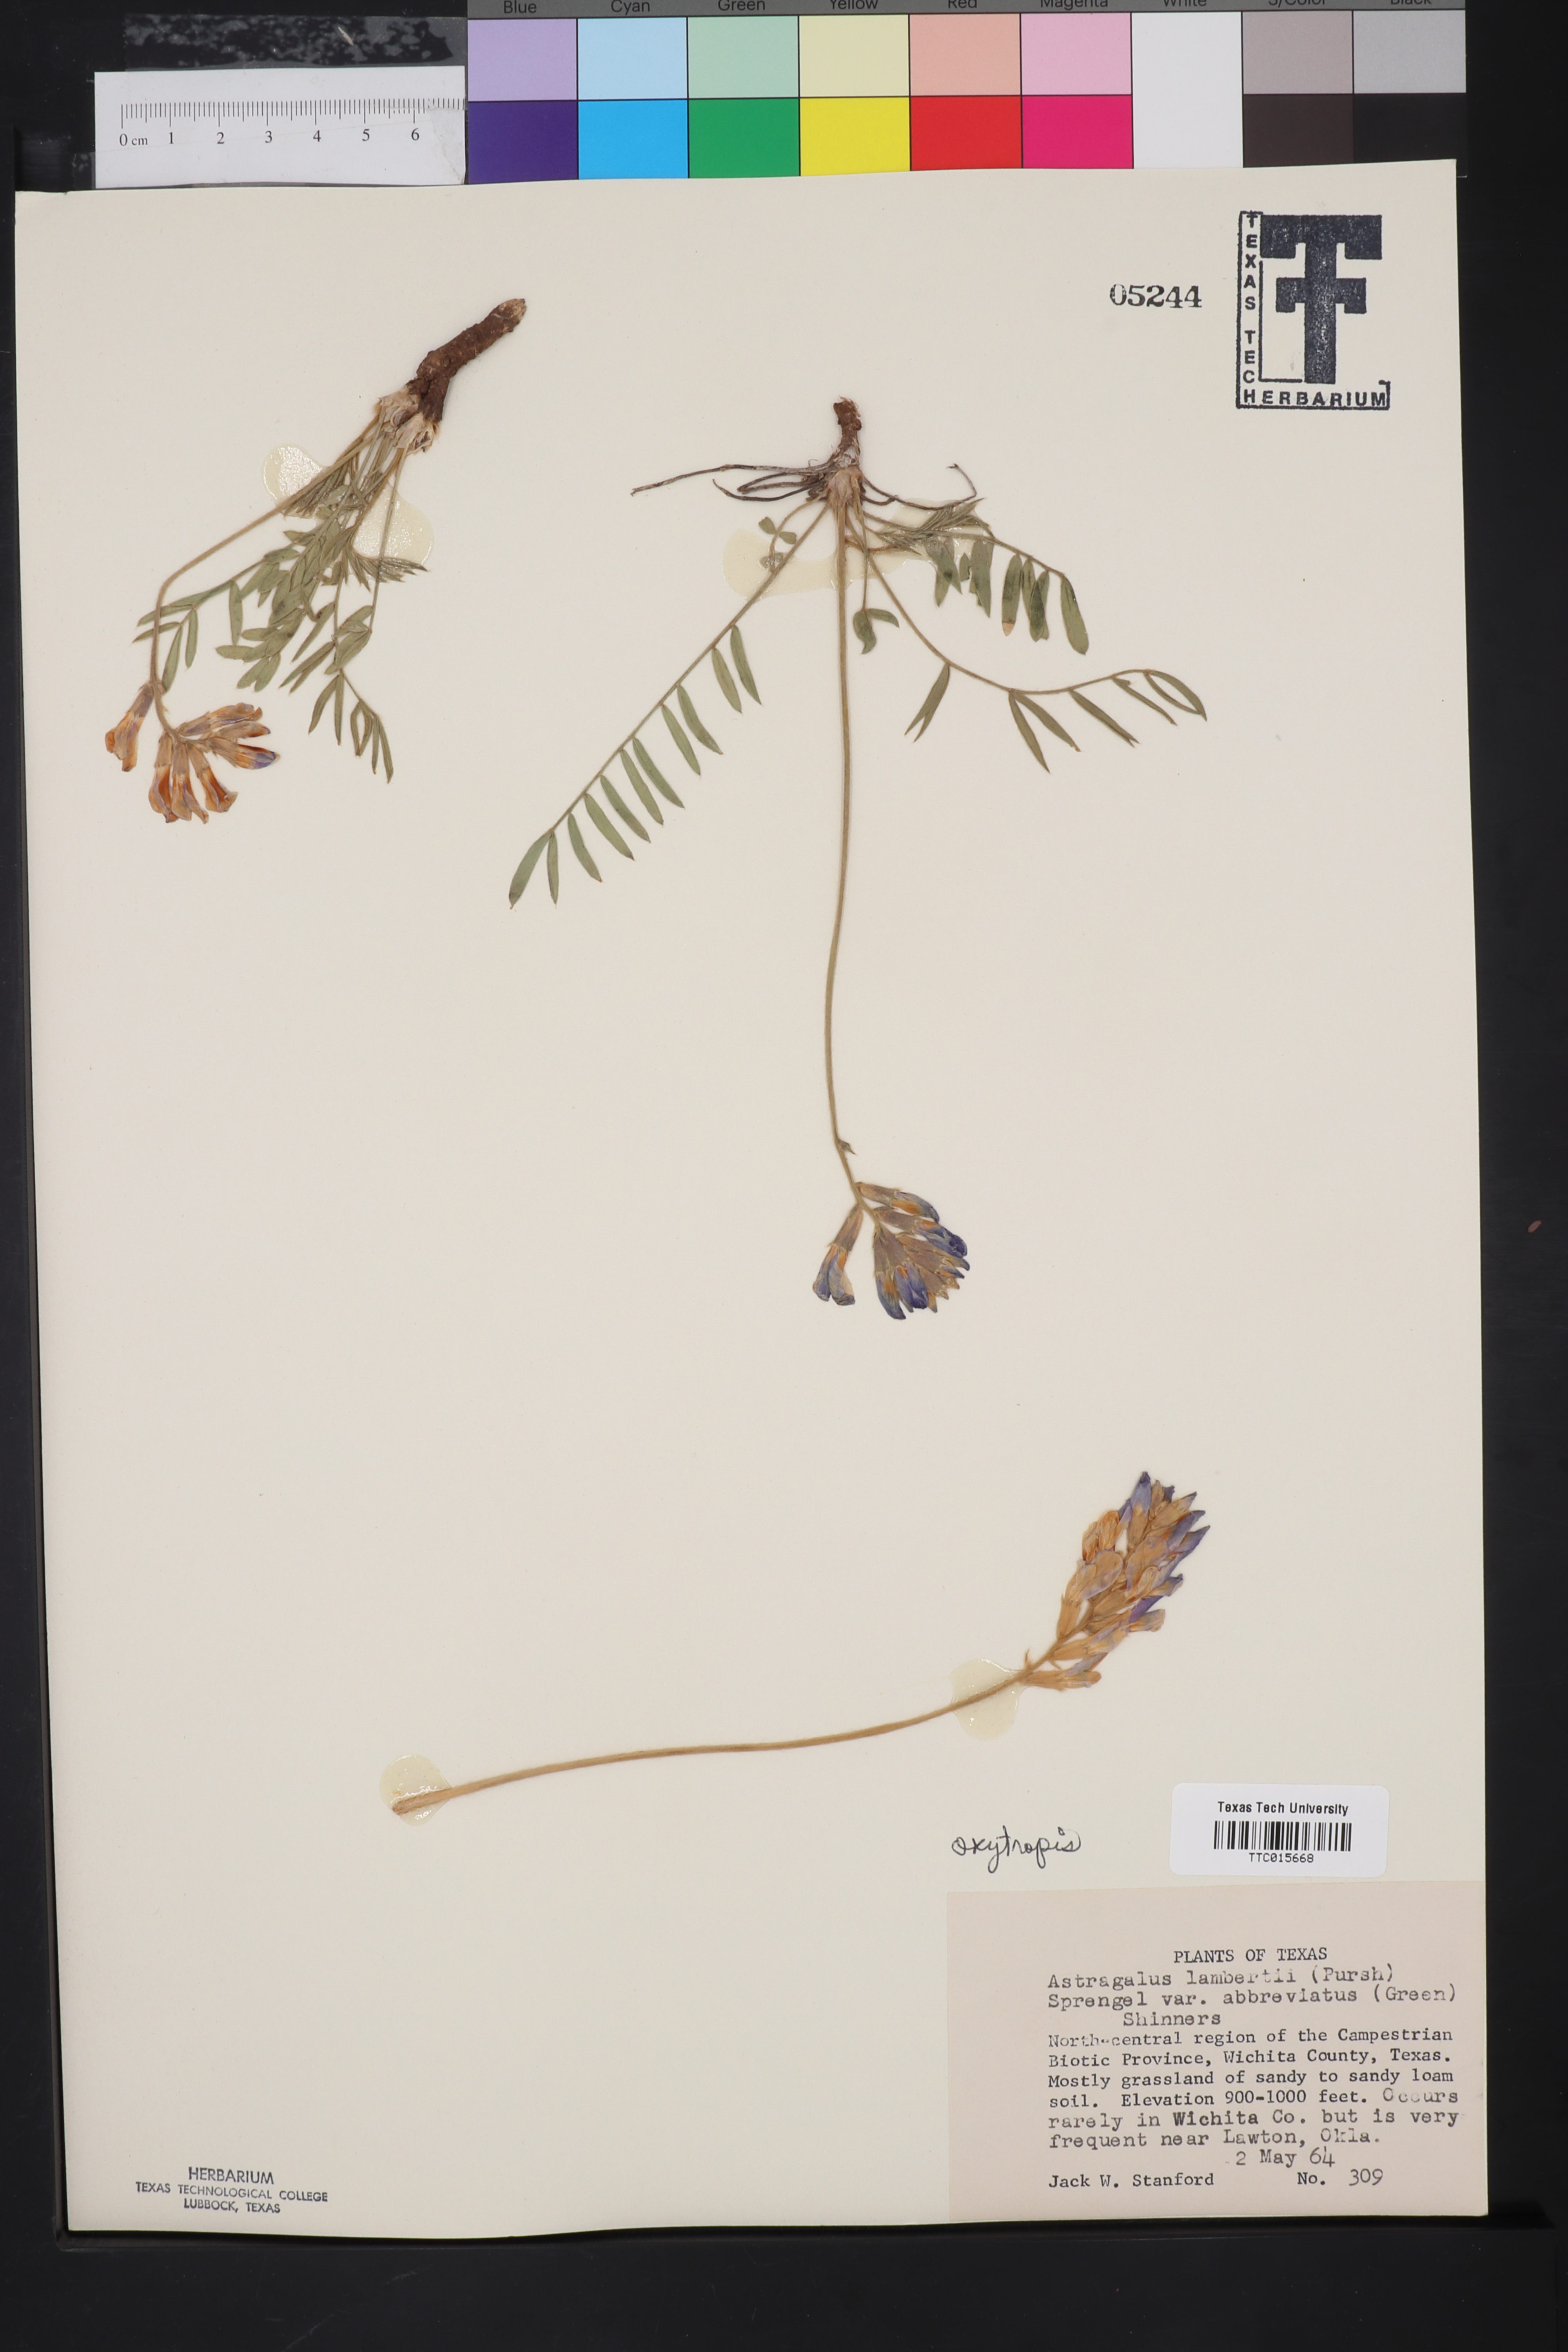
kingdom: Plantae
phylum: Tracheophyta
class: Magnoliopsida
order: Fabales
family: Fabaceae
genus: Oxytropis
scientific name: Oxytropis lambertii
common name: Purple locoweed
